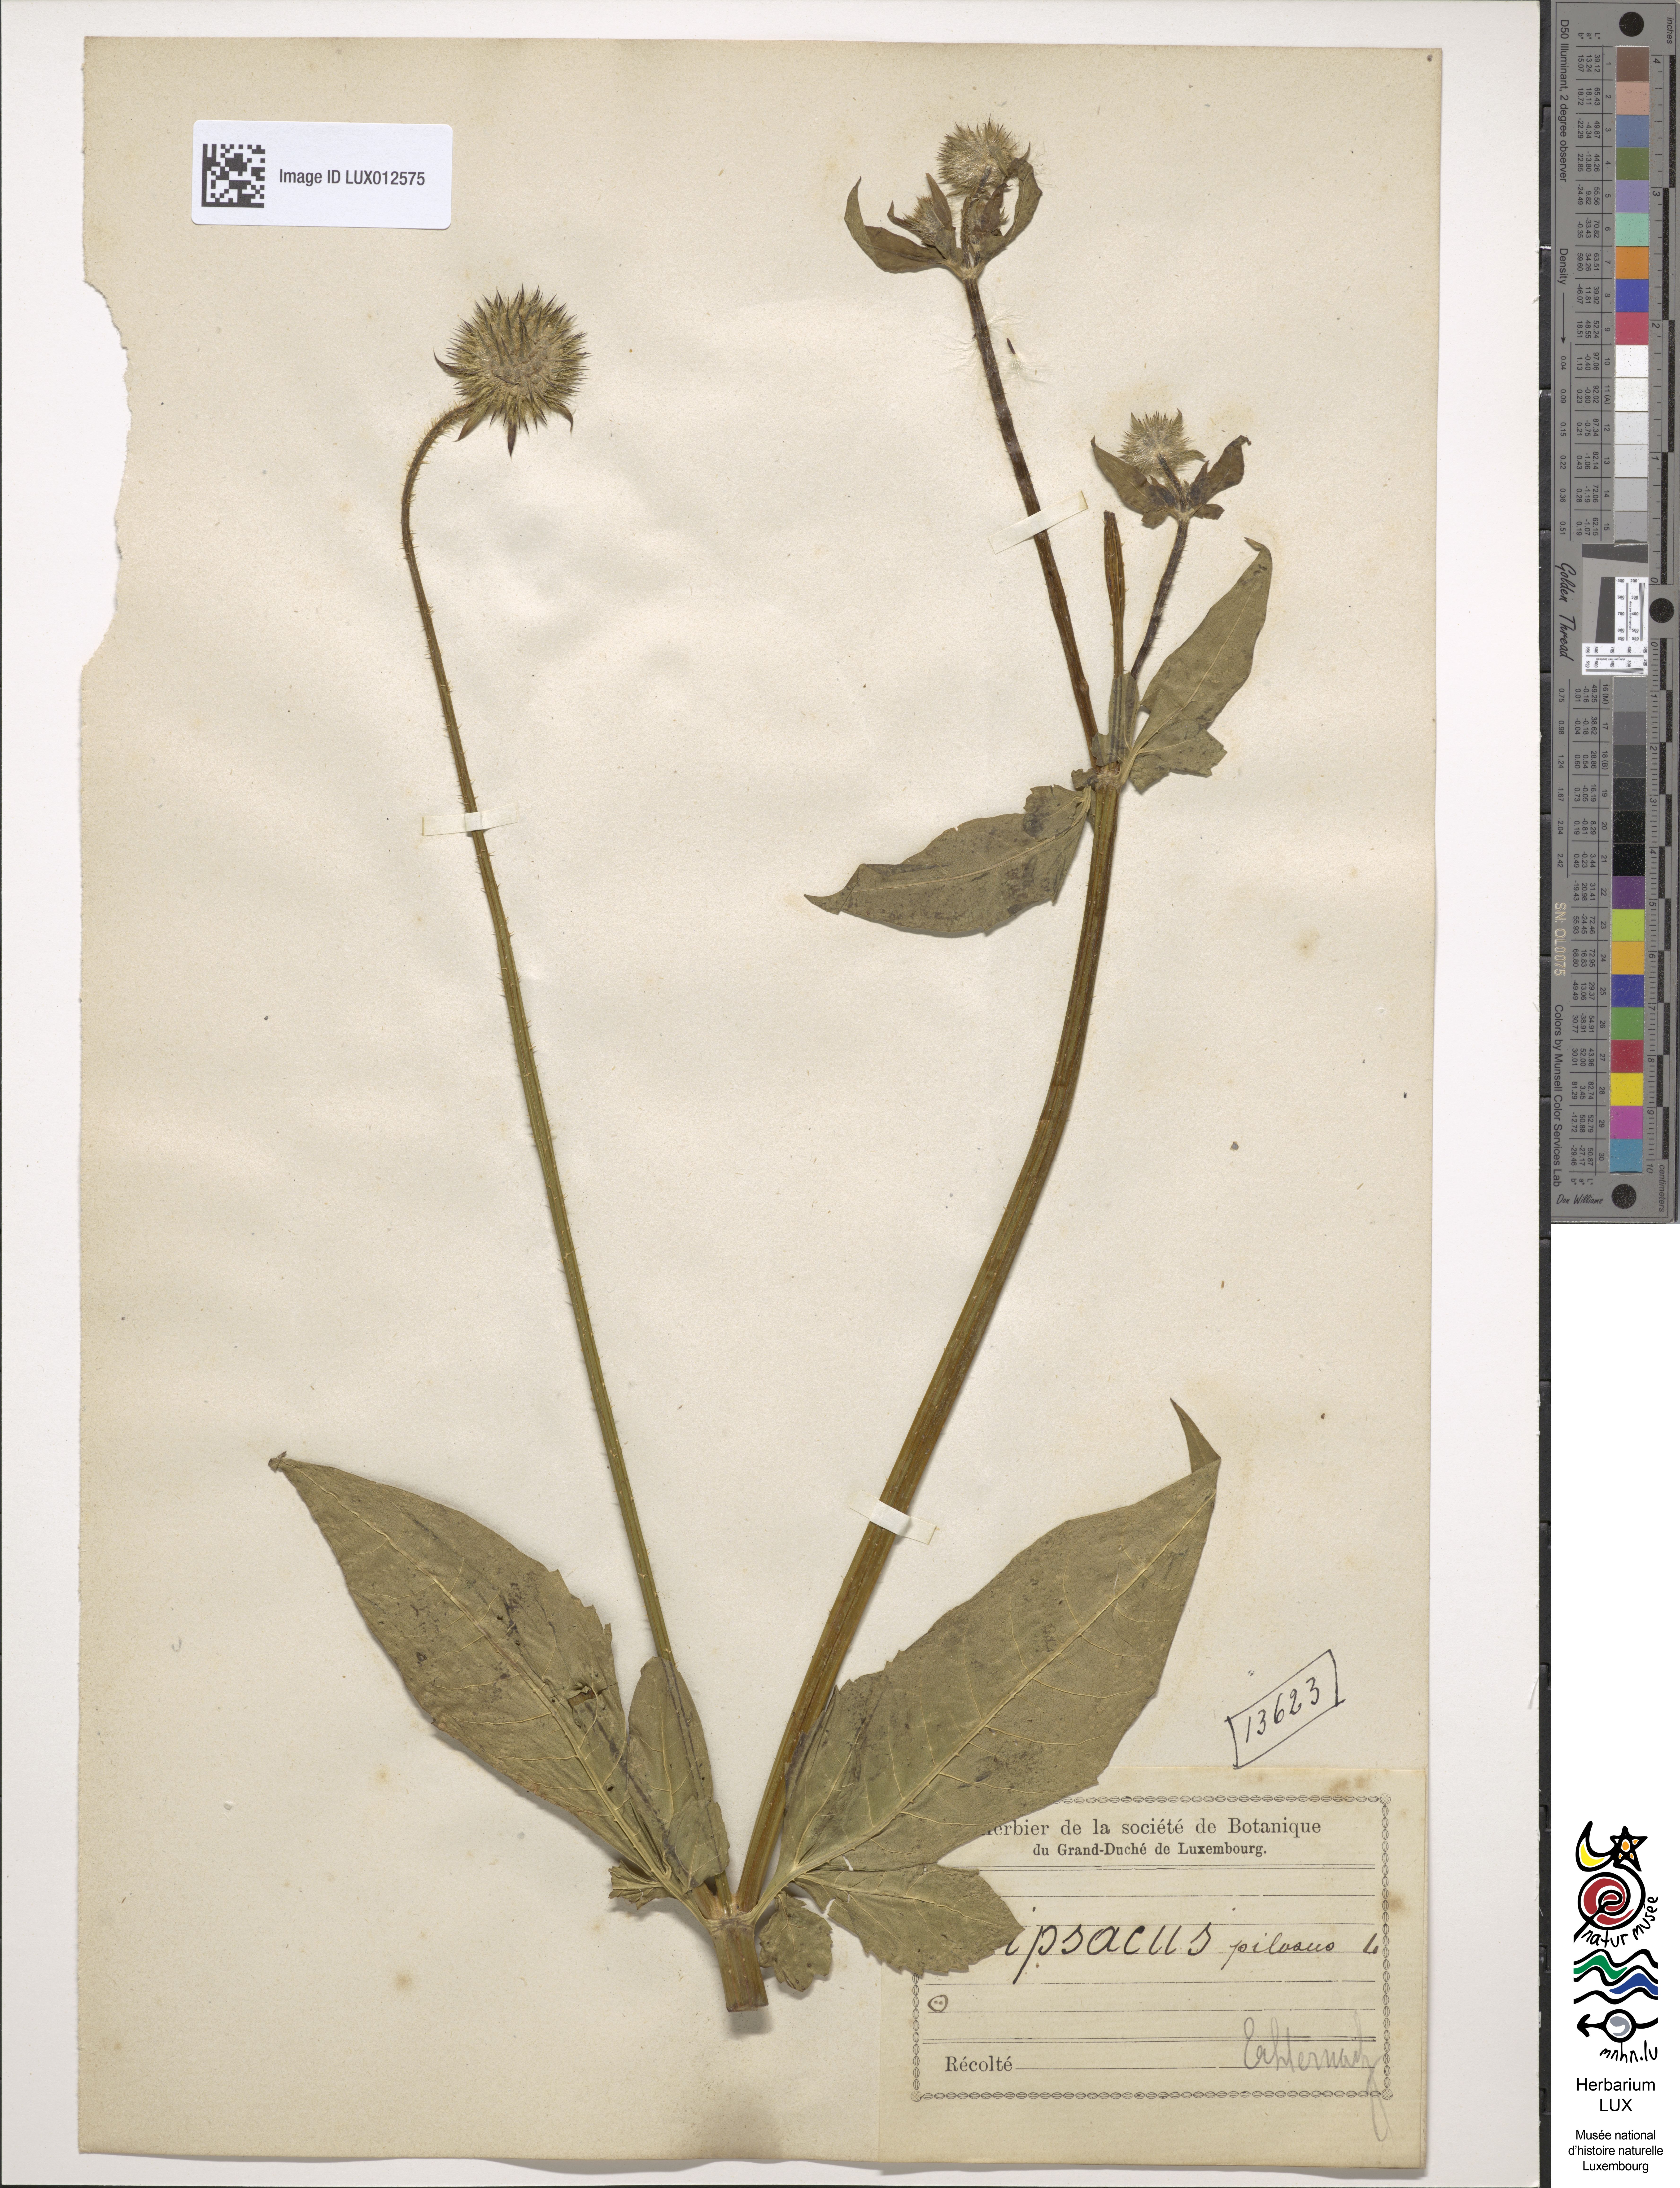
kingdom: Plantae
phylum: Tracheophyta
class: Magnoliopsida
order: Dipsacales
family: Caprifoliaceae
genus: Dipsacus
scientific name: Dipsacus pilosus
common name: Small teasel
